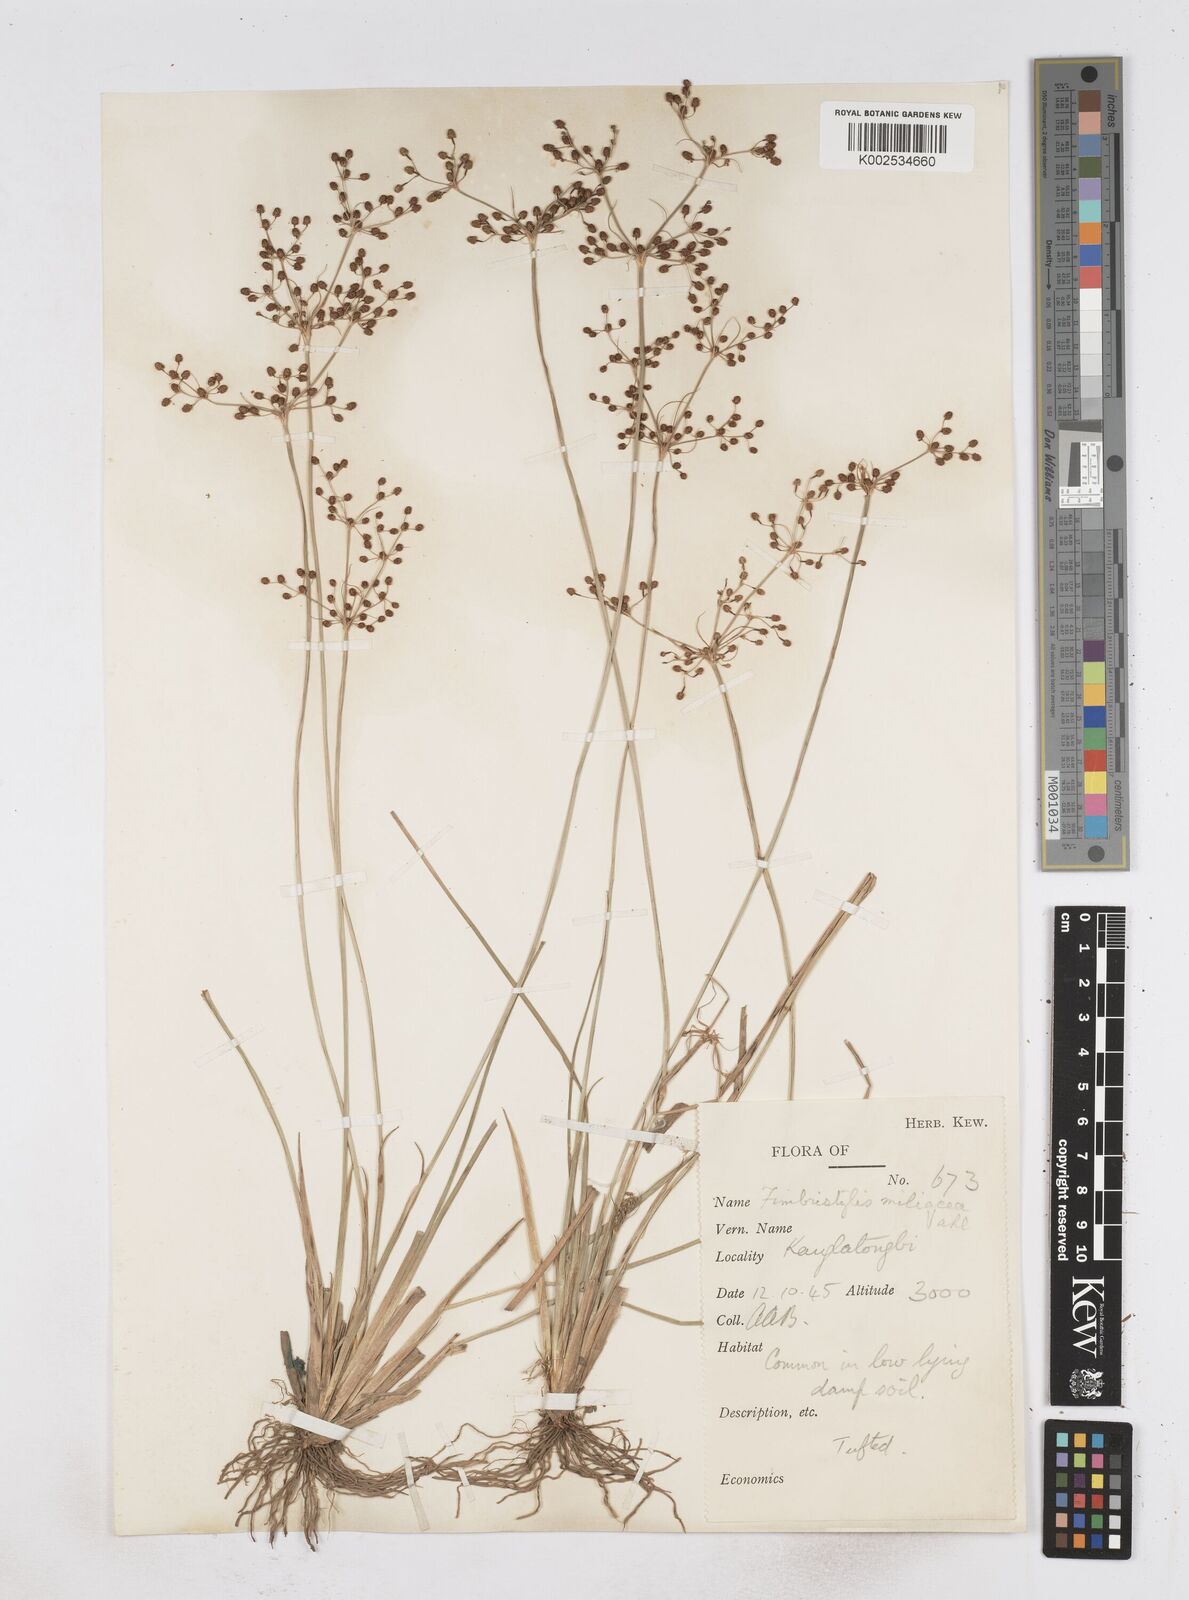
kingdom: Plantae
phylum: Tracheophyta
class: Liliopsida
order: Poales
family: Cyperaceae
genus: Fimbristylis
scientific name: Fimbristylis littoralis
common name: Fimbry
